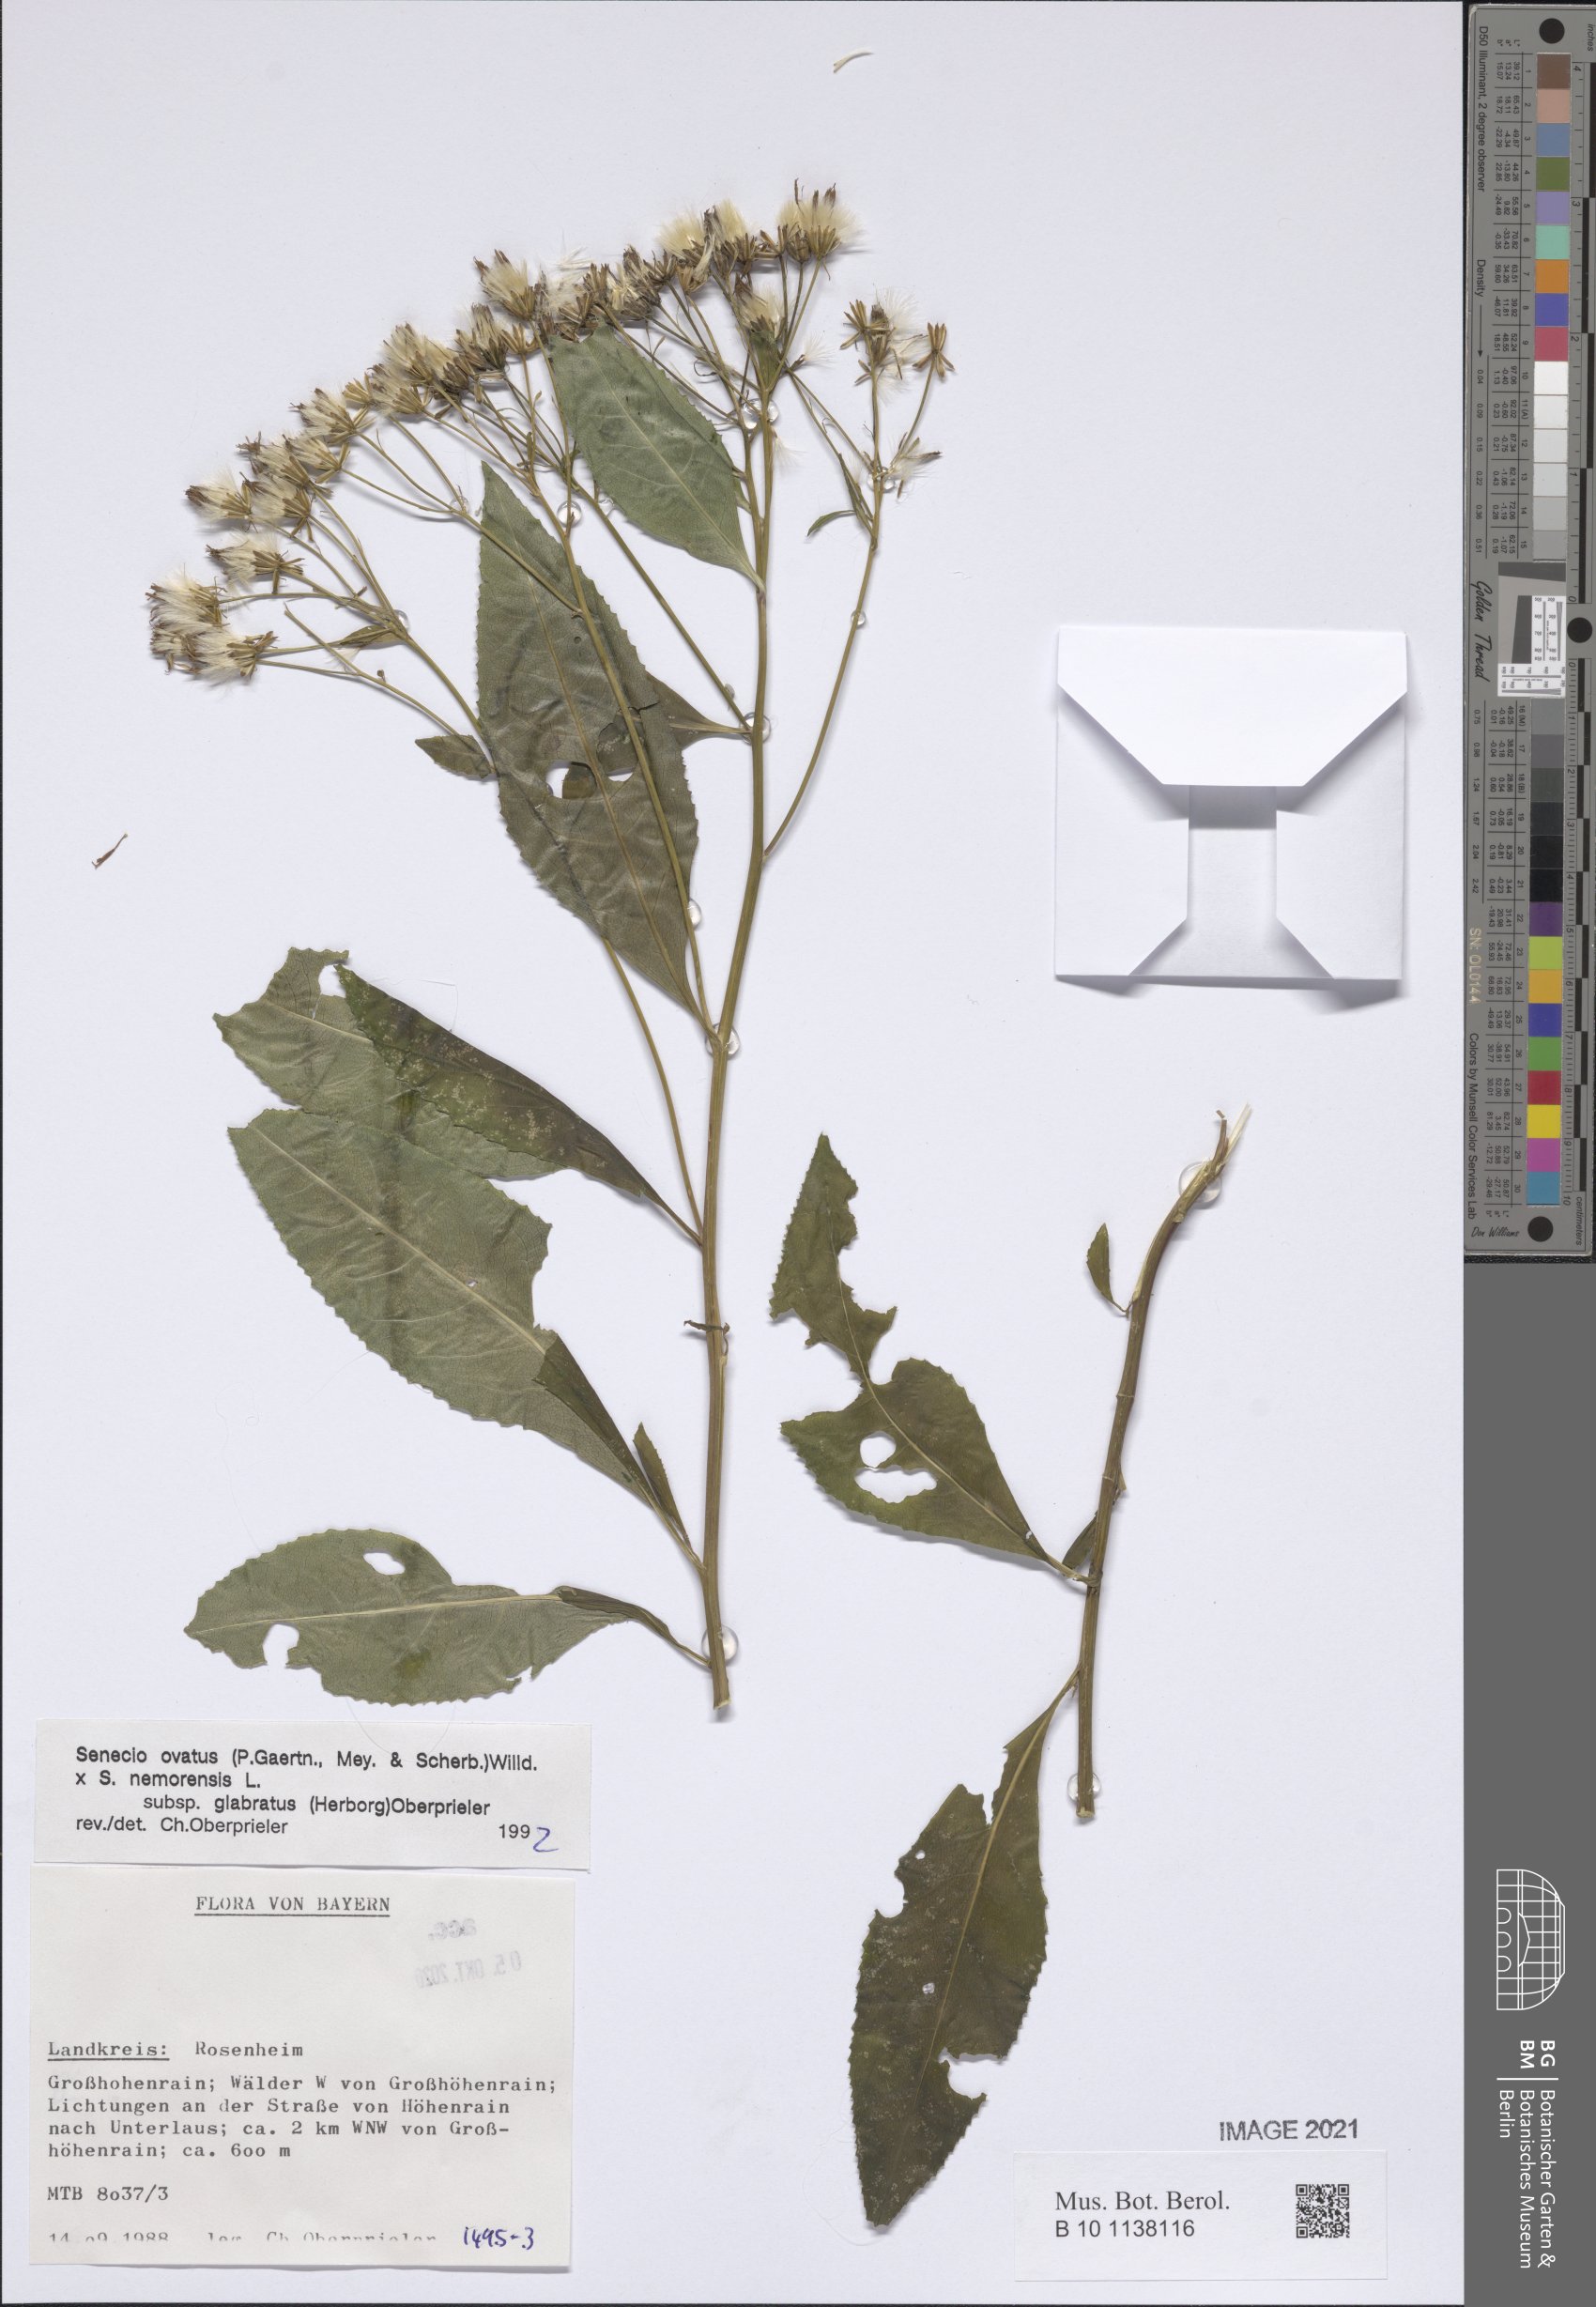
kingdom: Plantae
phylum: Tracheophyta
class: Magnoliopsida
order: Asterales
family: Asteraceae
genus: Senecio
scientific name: Senecio ovatus
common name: Wood ragwort
